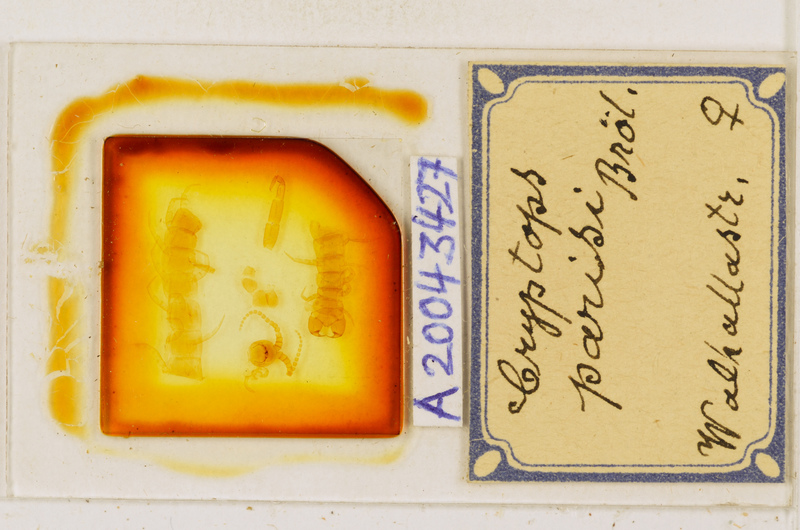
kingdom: Animalia
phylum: Arthropoda
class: Chilopoda
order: Scolopendromorpha
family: Cryptopidae
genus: Cryptops
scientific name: Cryptops parisi
